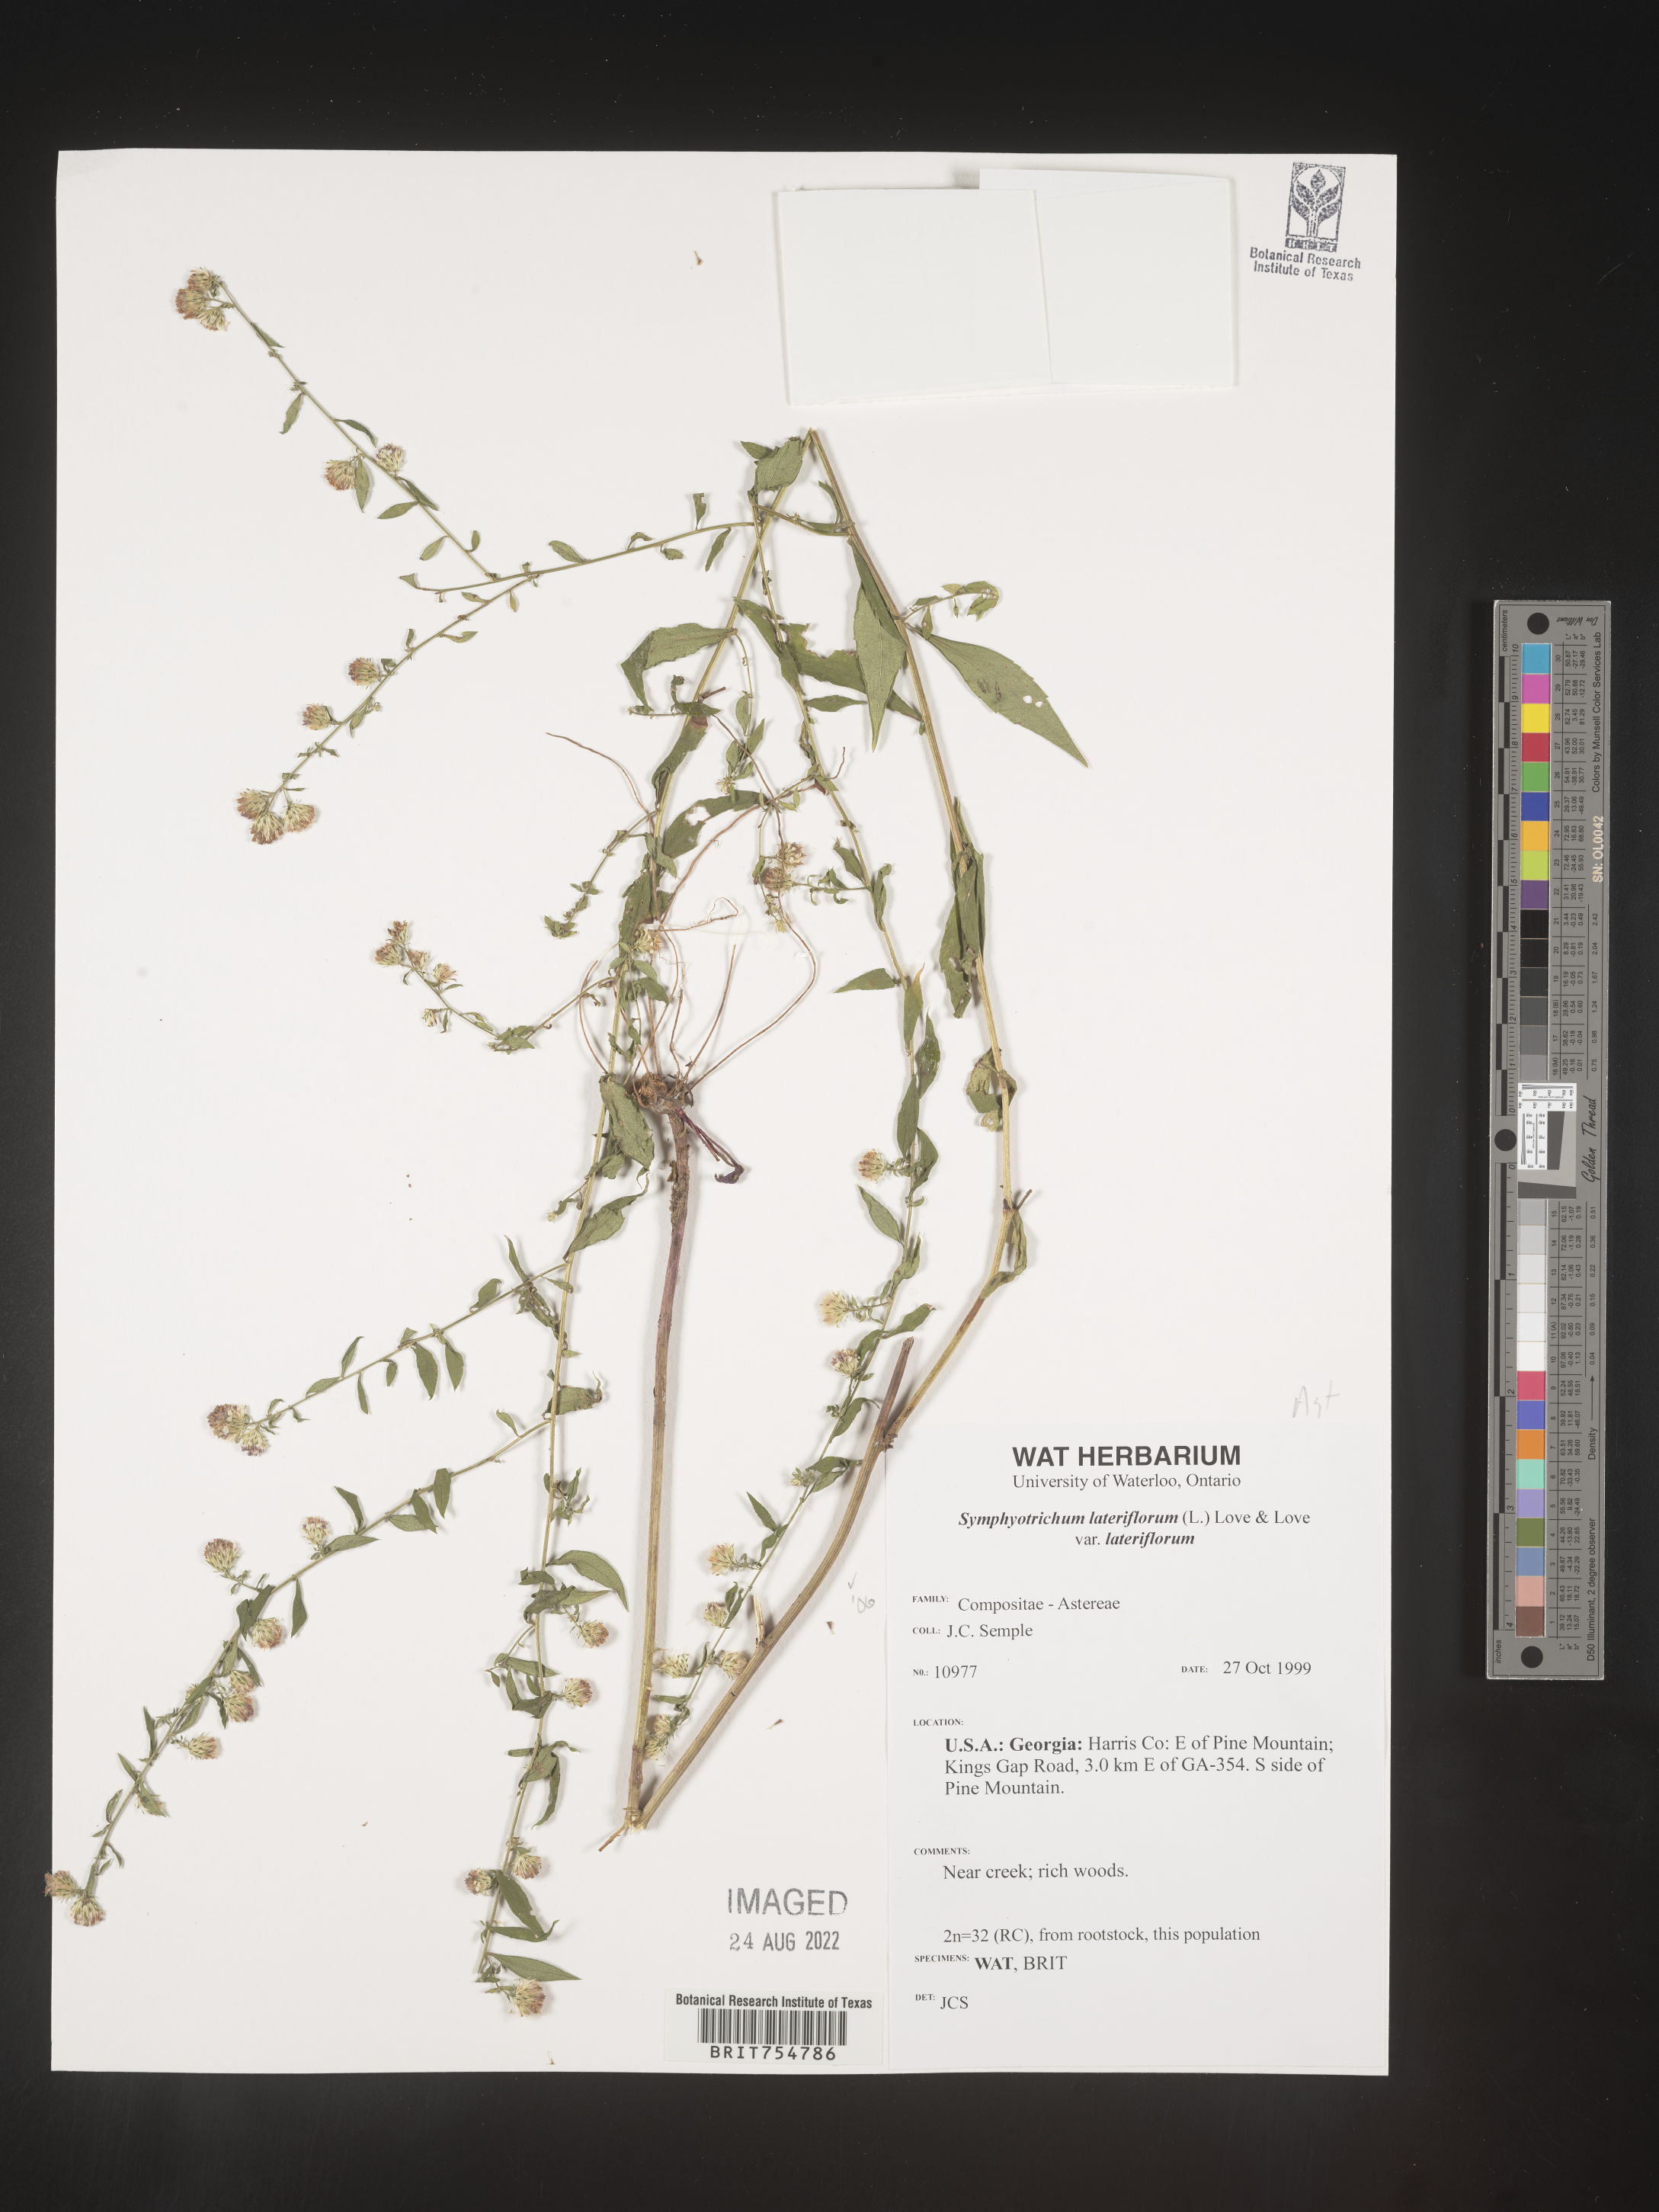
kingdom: Plantae
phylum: Tracheophyta
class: Magnoliopsida
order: Asterales
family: Asteraceae
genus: Symphyotrichum
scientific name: Symphyotrichum
